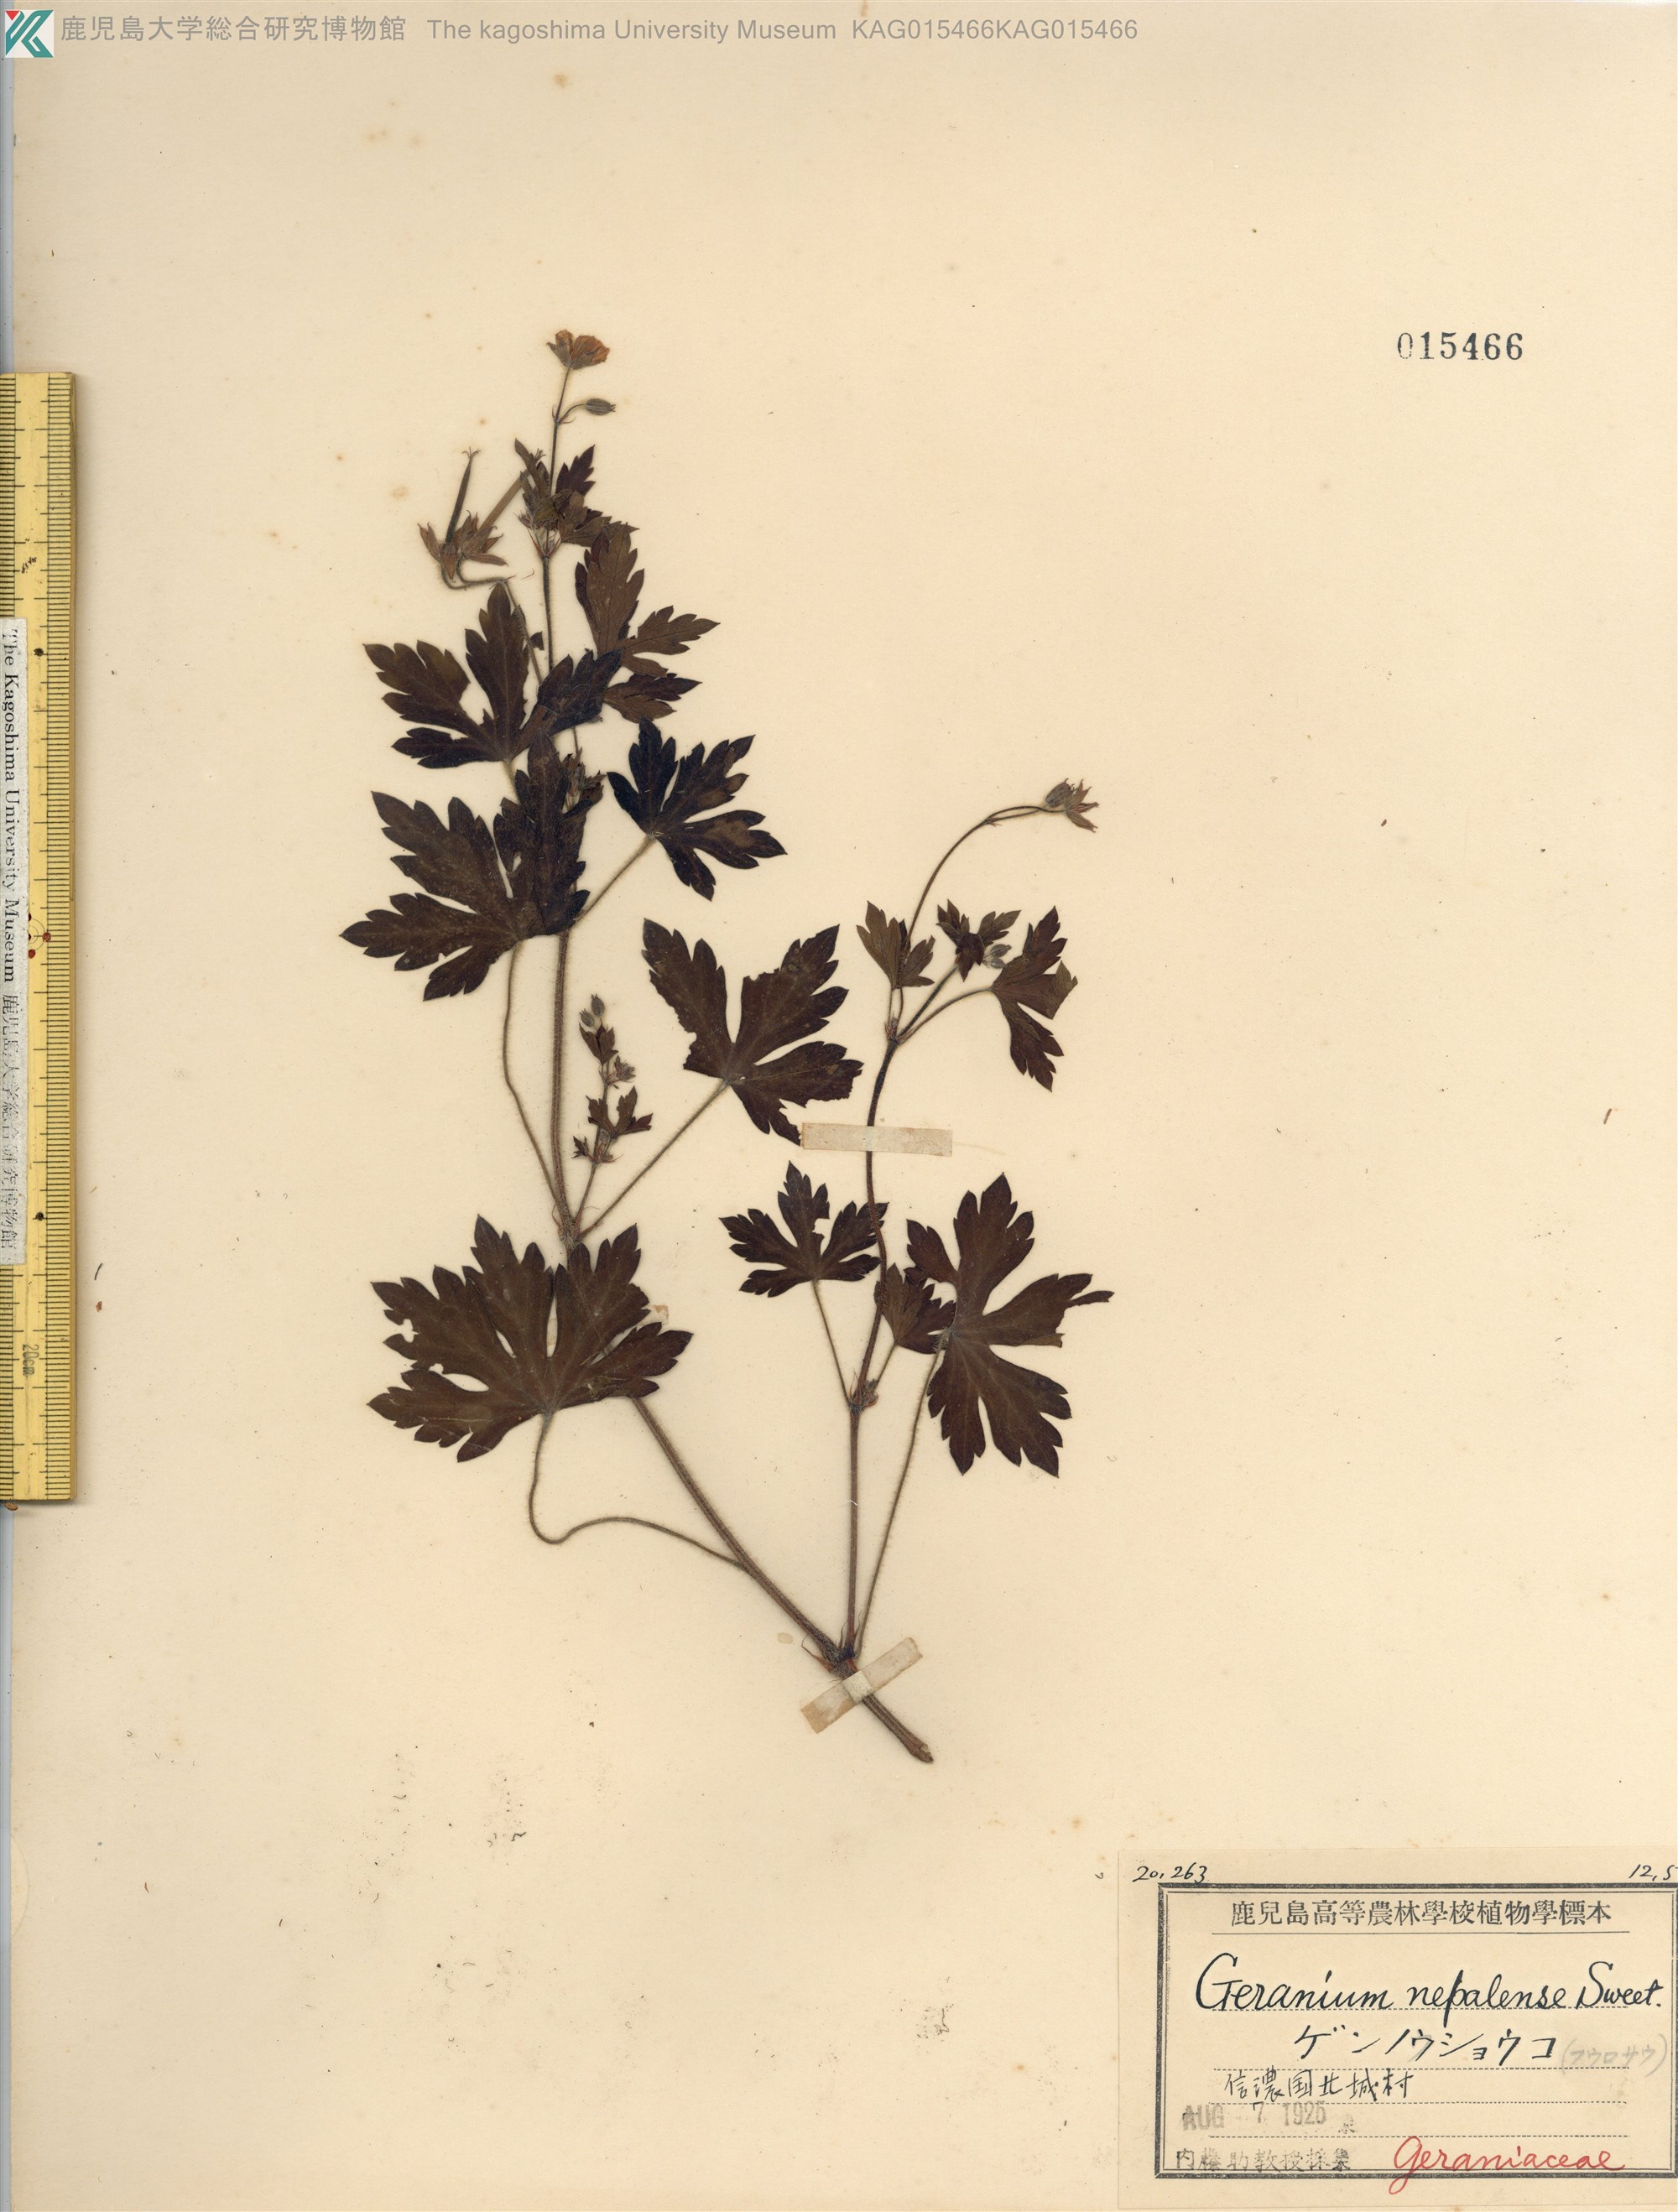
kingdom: Plantae
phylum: Tracheophyta
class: Magnoliopsida
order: Geraniales
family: Geraniaceae
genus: Geranium
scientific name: Geranium thunbergii
